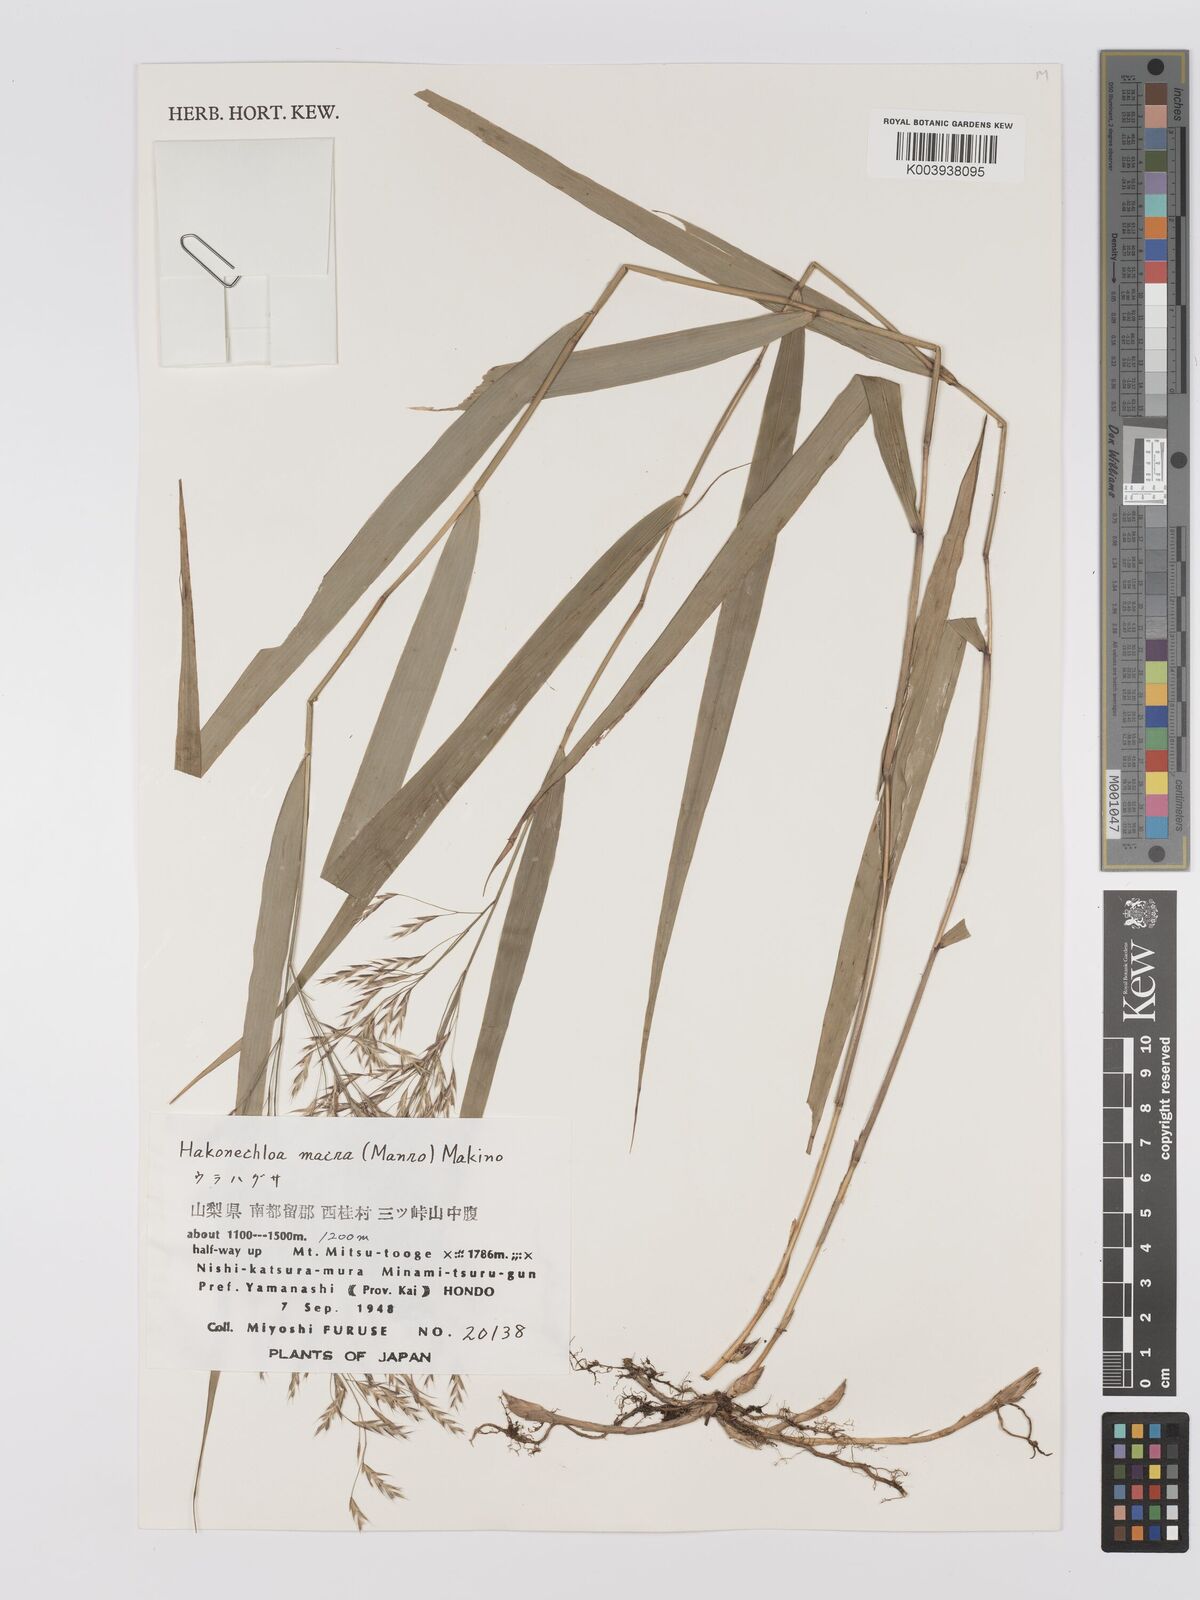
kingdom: Plantae
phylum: Tracheophyta
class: Liliopsida
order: Poales
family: Poaceae
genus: Hakonechloa
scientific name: Hakonechloa macra
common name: Hakone grass
